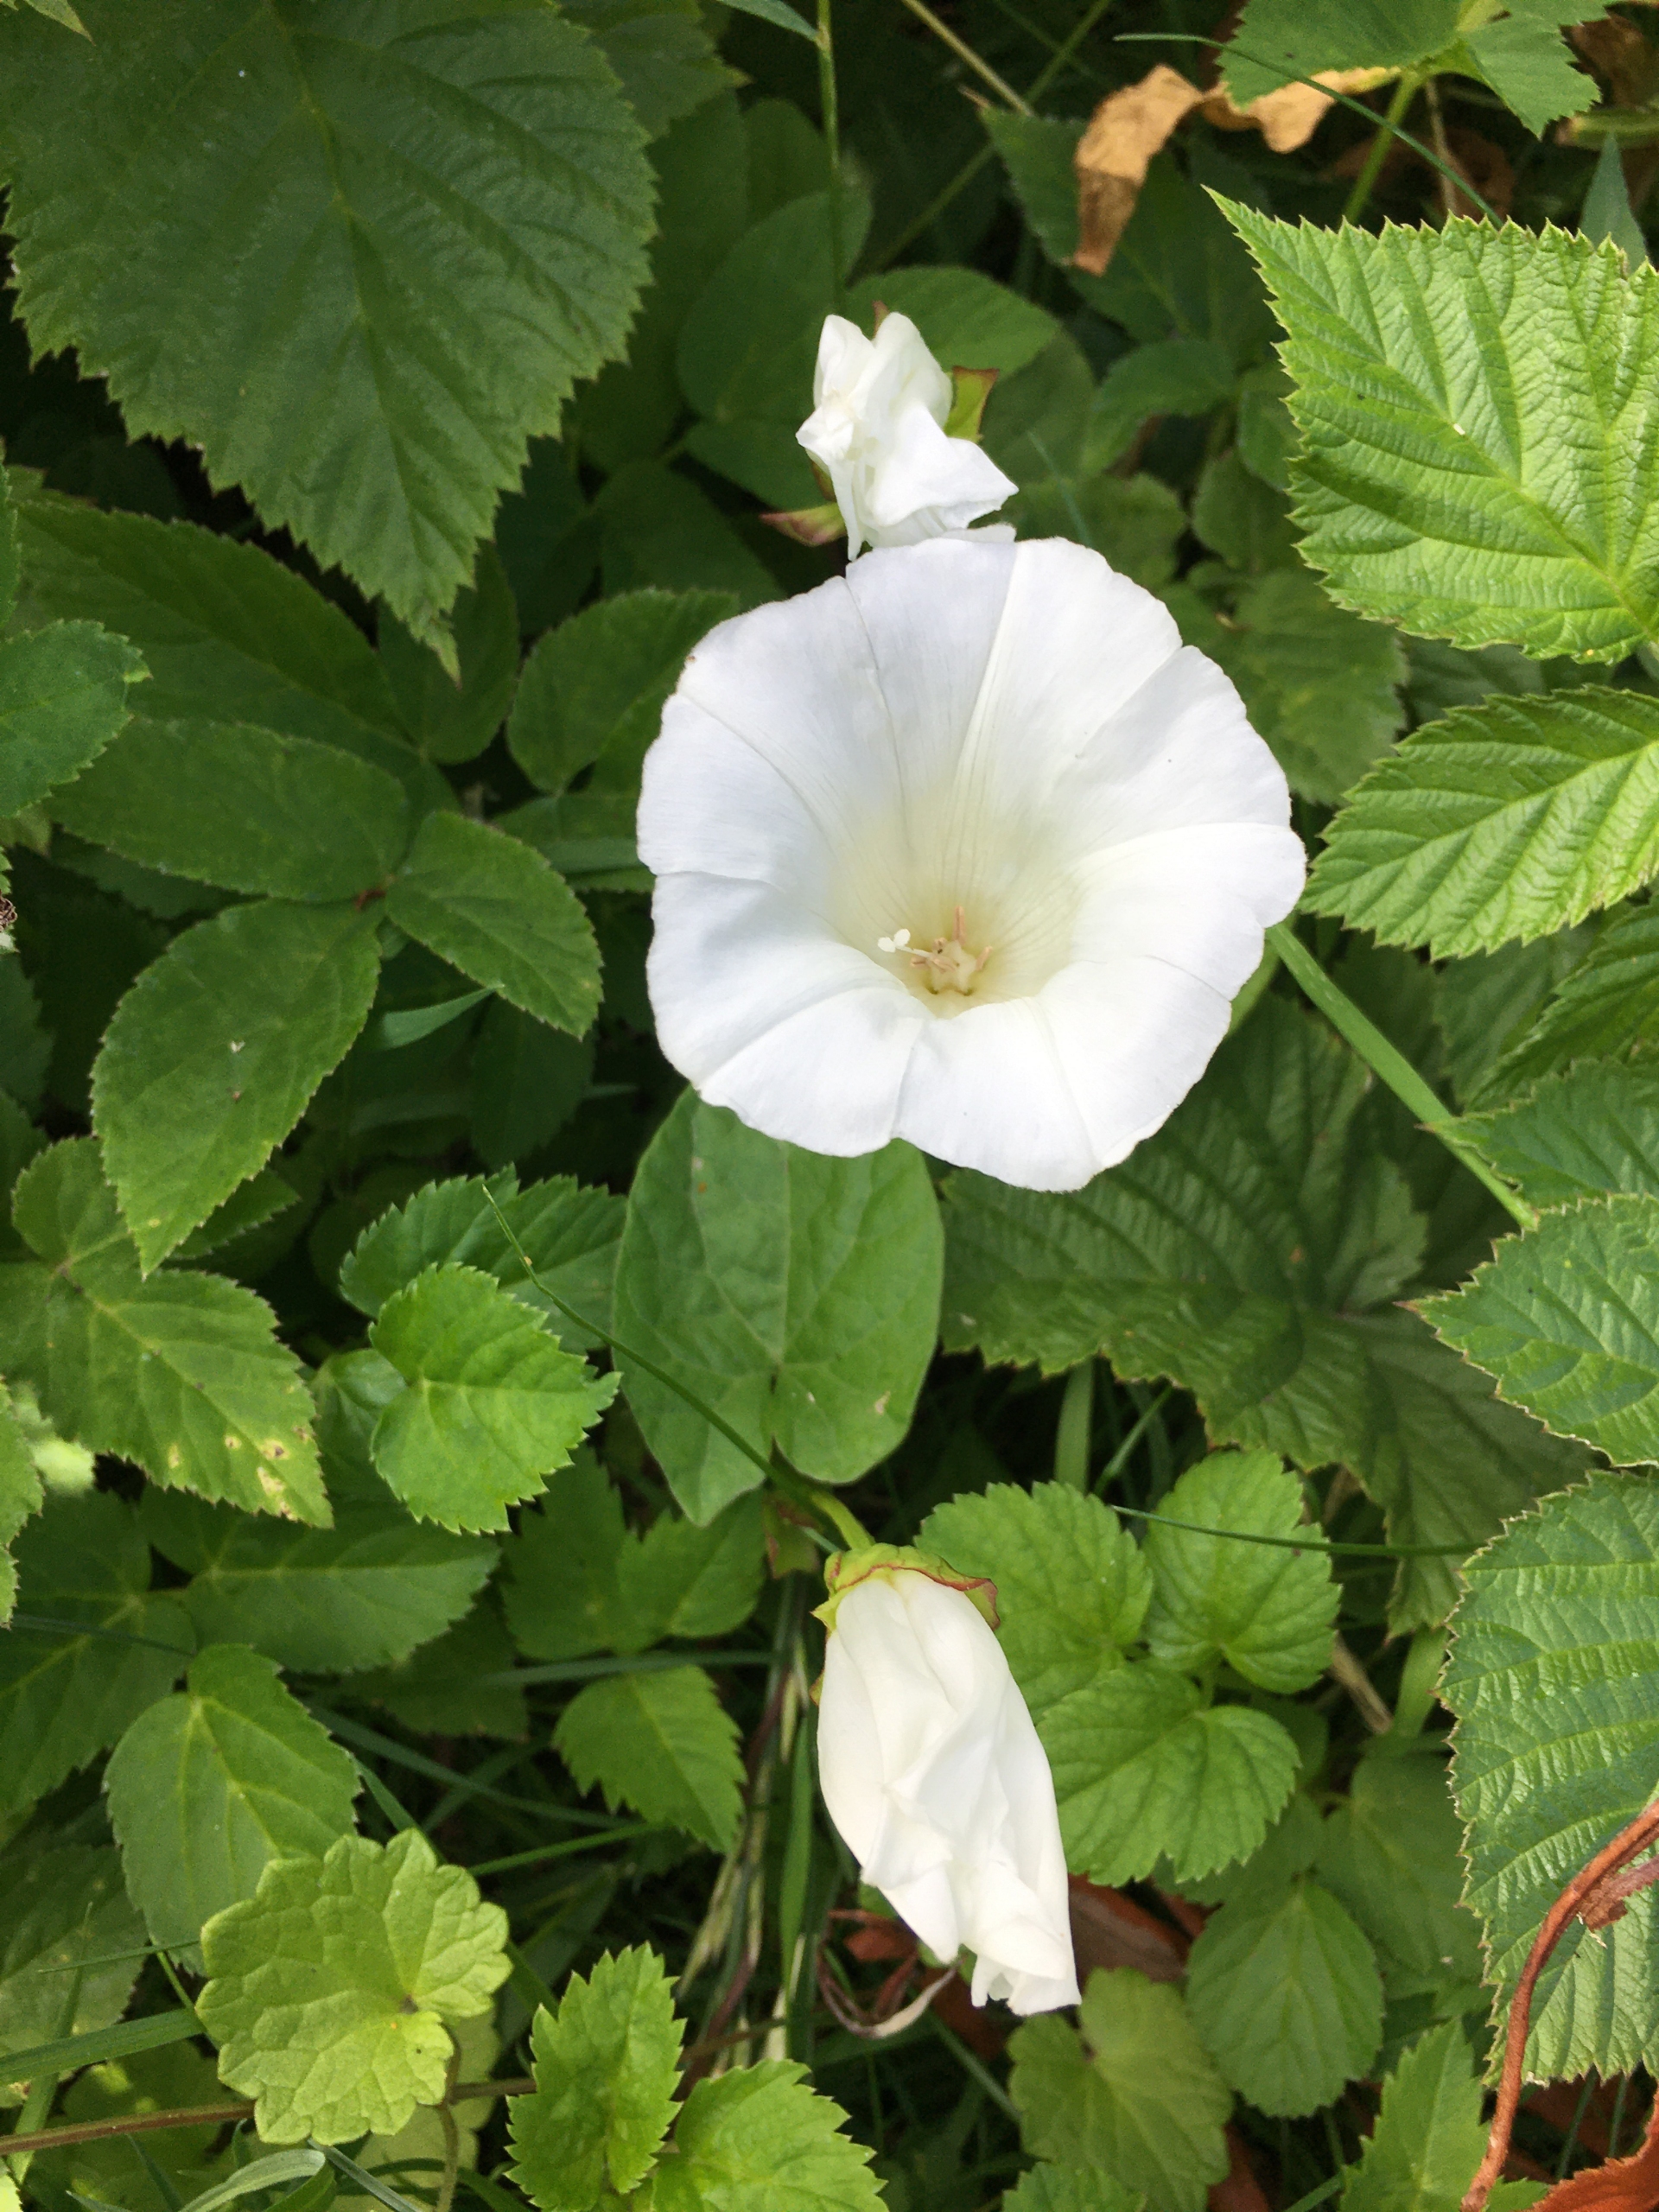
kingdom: Plantae
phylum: Tracheophyta
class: Magnoliopsida
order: Solanales
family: Convolvulaceae
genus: Calystegia
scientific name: Calystegia sepium
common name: Gærde-snerle
